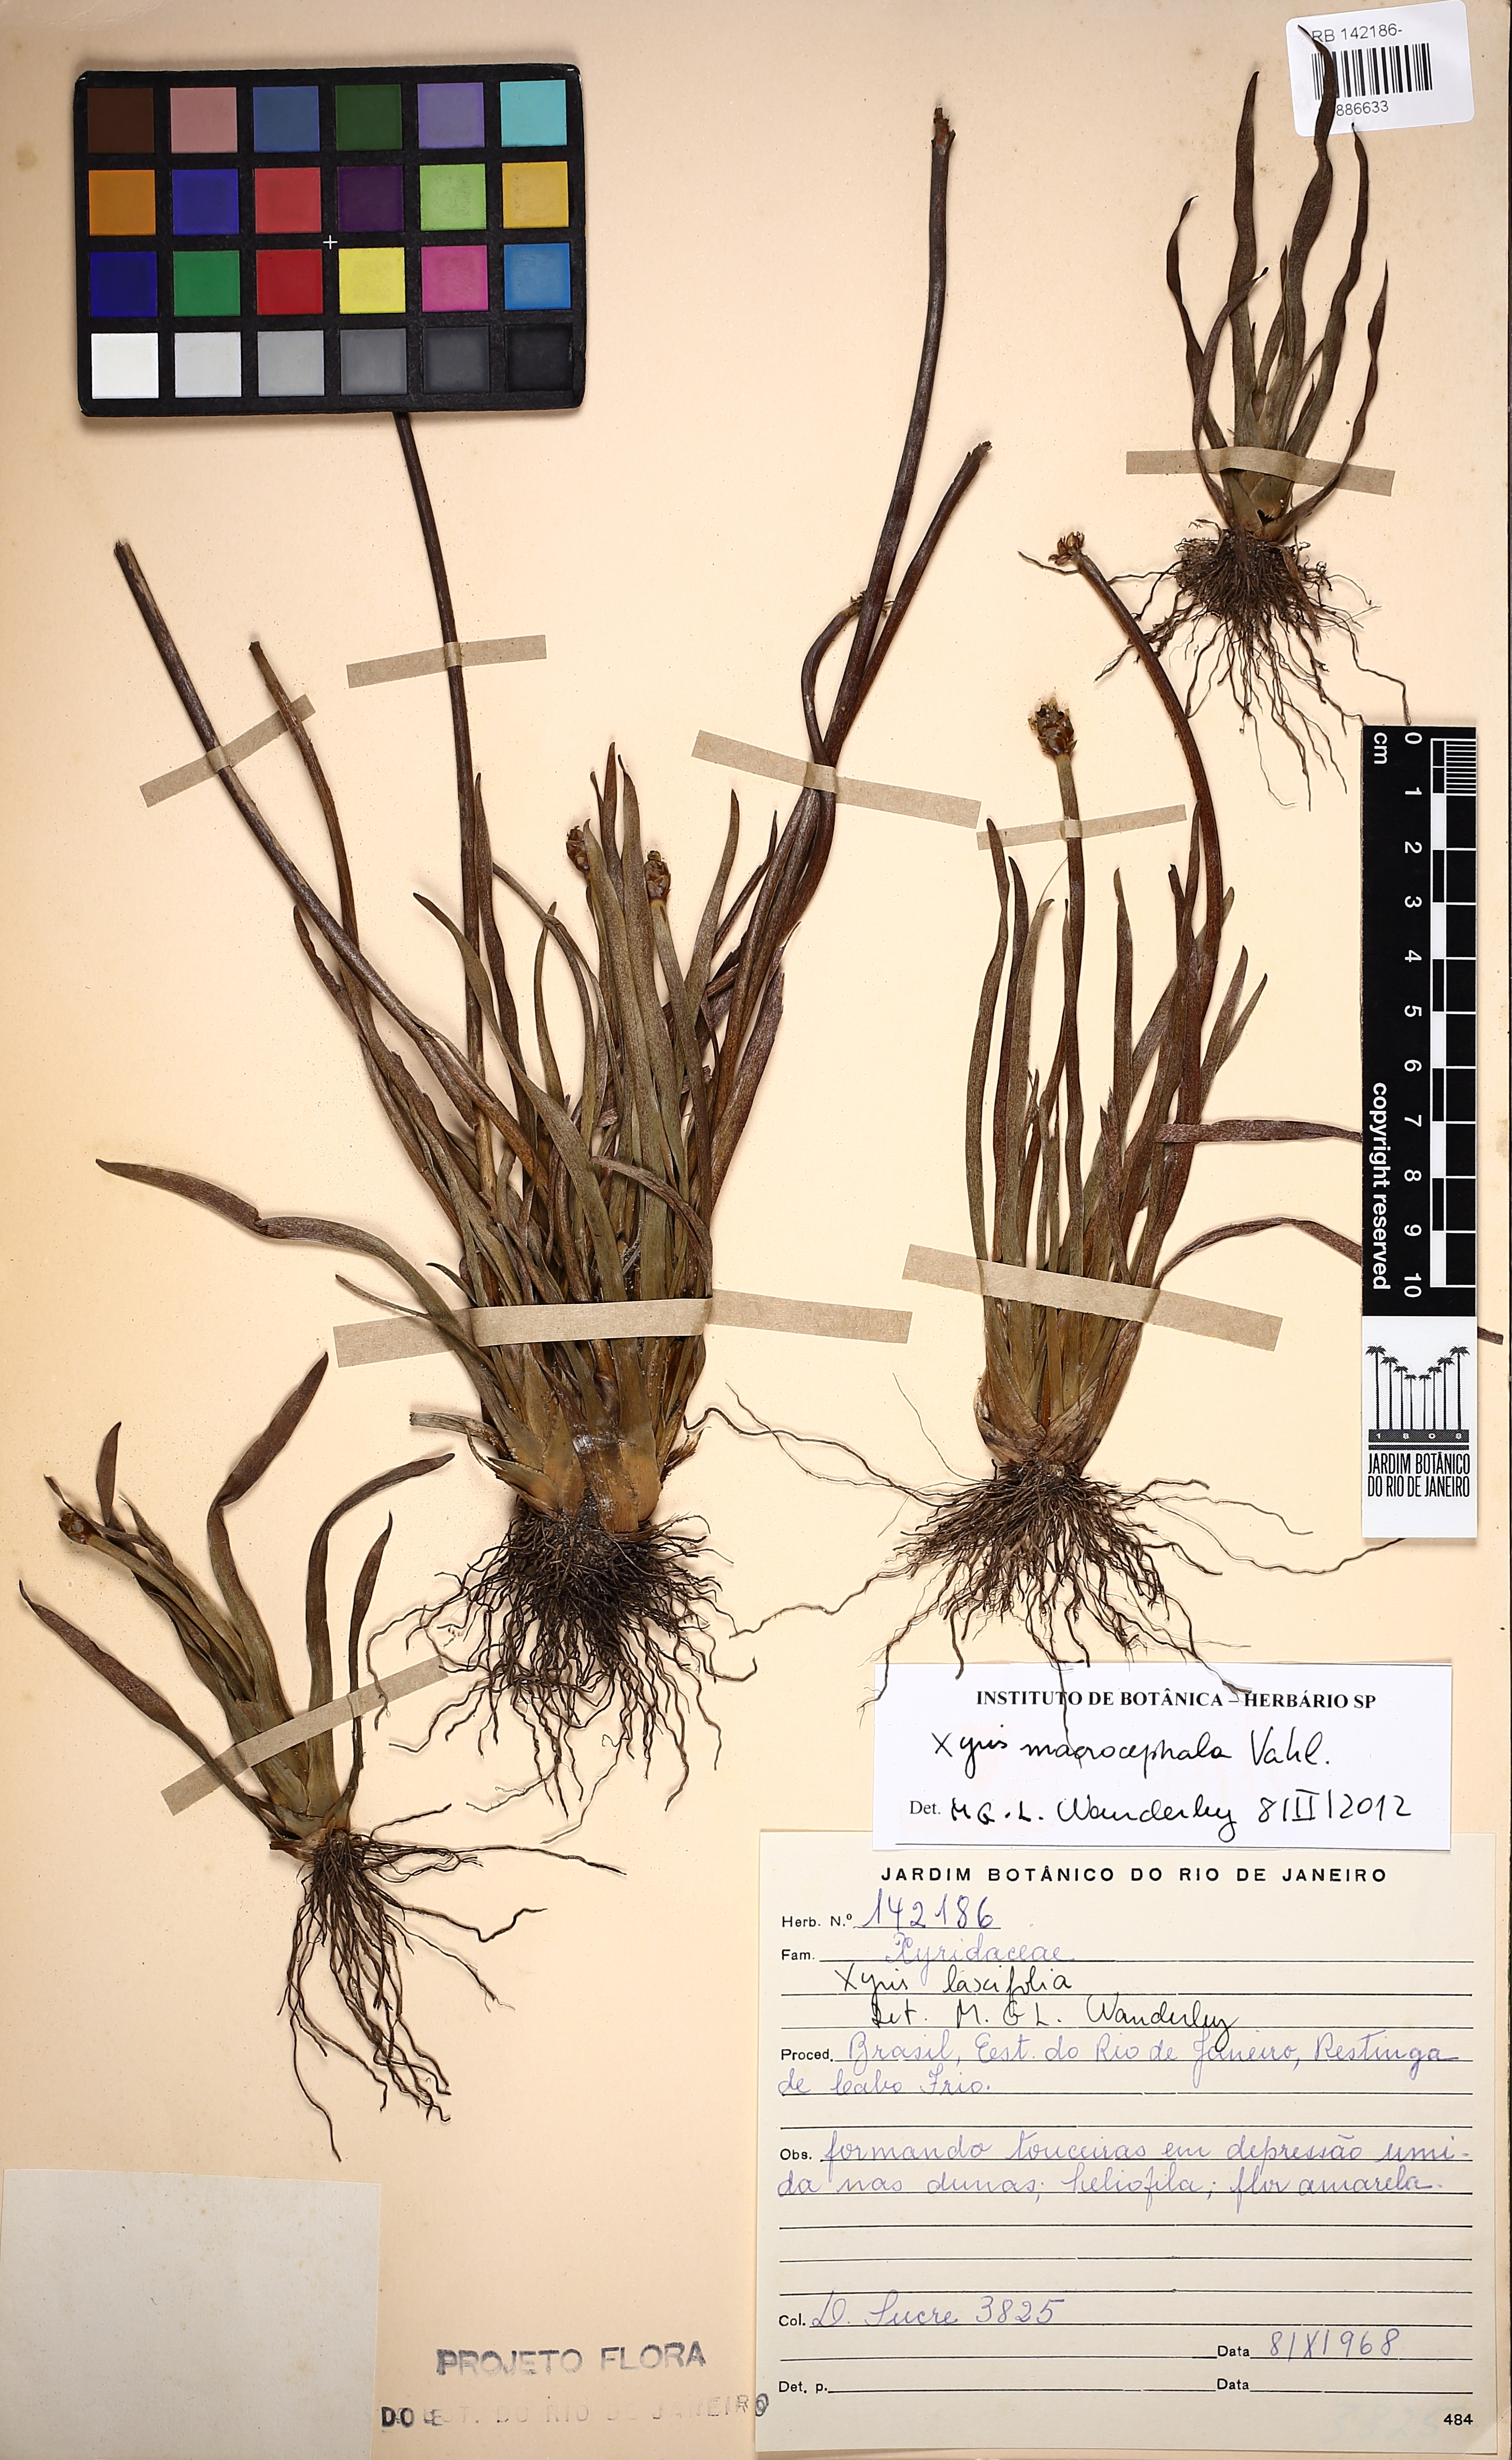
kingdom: Plantae
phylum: Tracheophyta
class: Liliopsida
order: Poales
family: Xyridaceae
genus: Xyris
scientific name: Xyris jupicai
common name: Richard's yelloweyed grass
